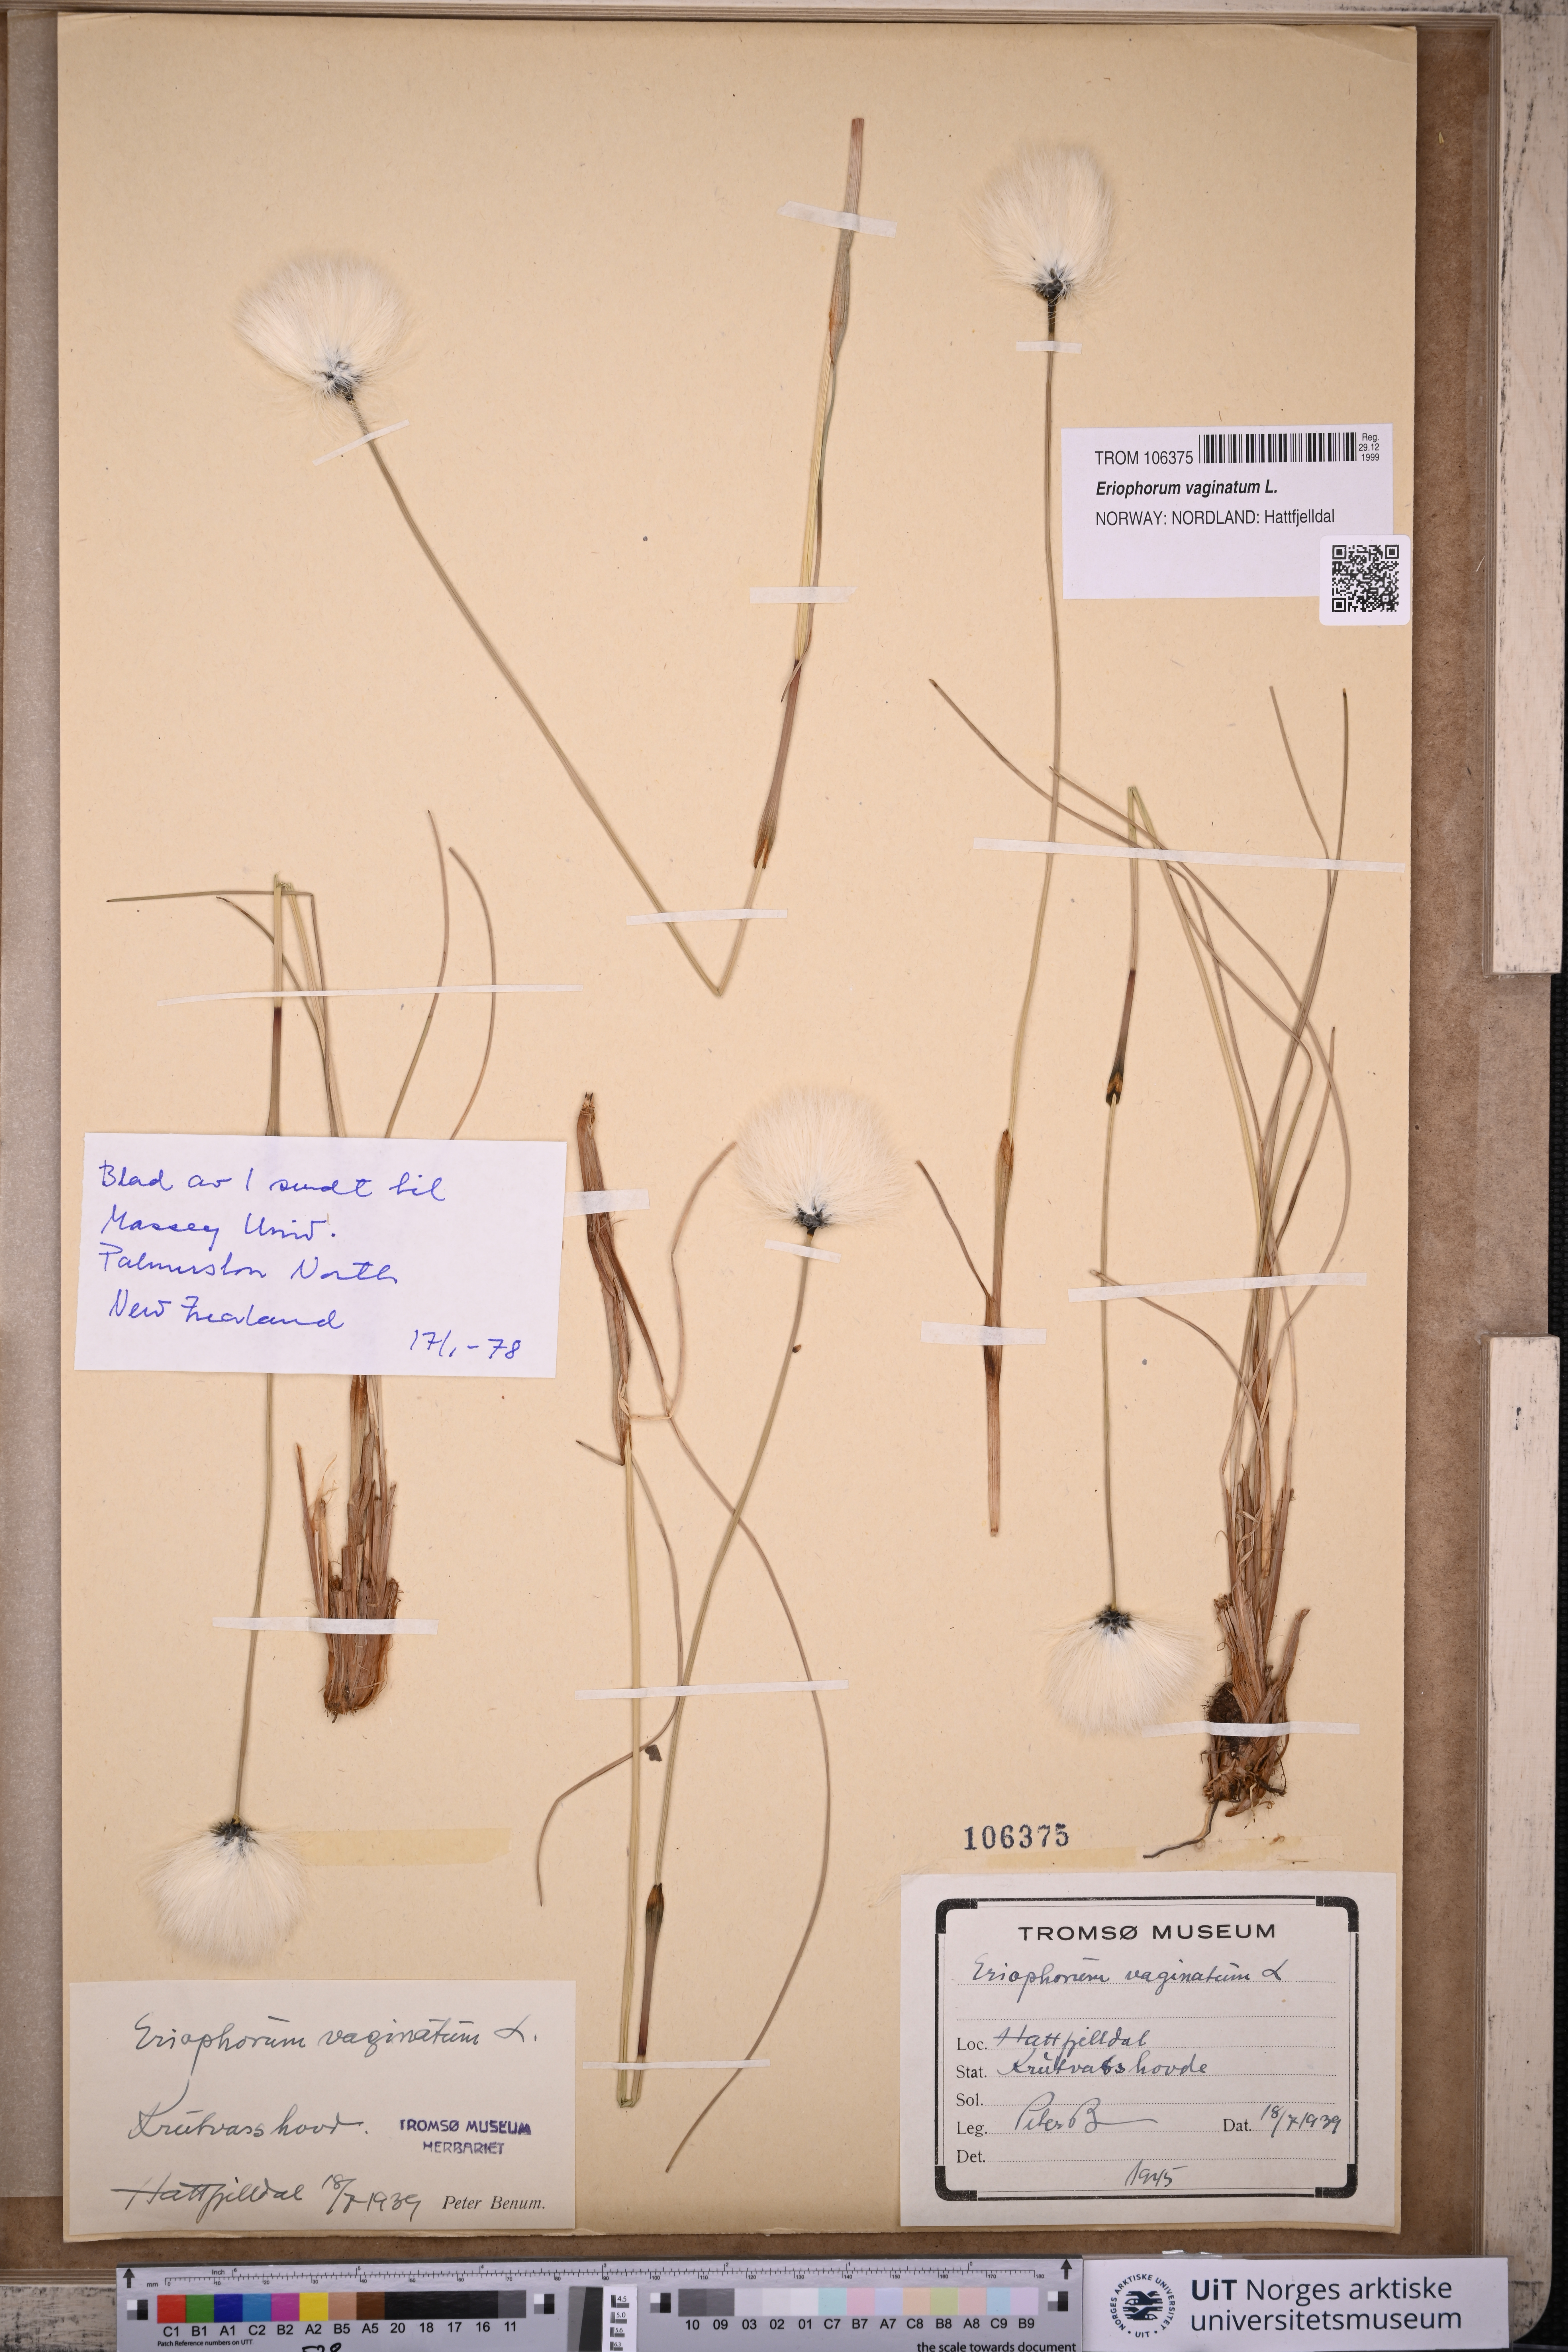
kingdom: Plantae
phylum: Tracheophyta
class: Liliopsida
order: Poales
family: Cyperaceae
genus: Eriophorum
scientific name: Eriophorum vaginatum
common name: Hare's-tail cottongrass
